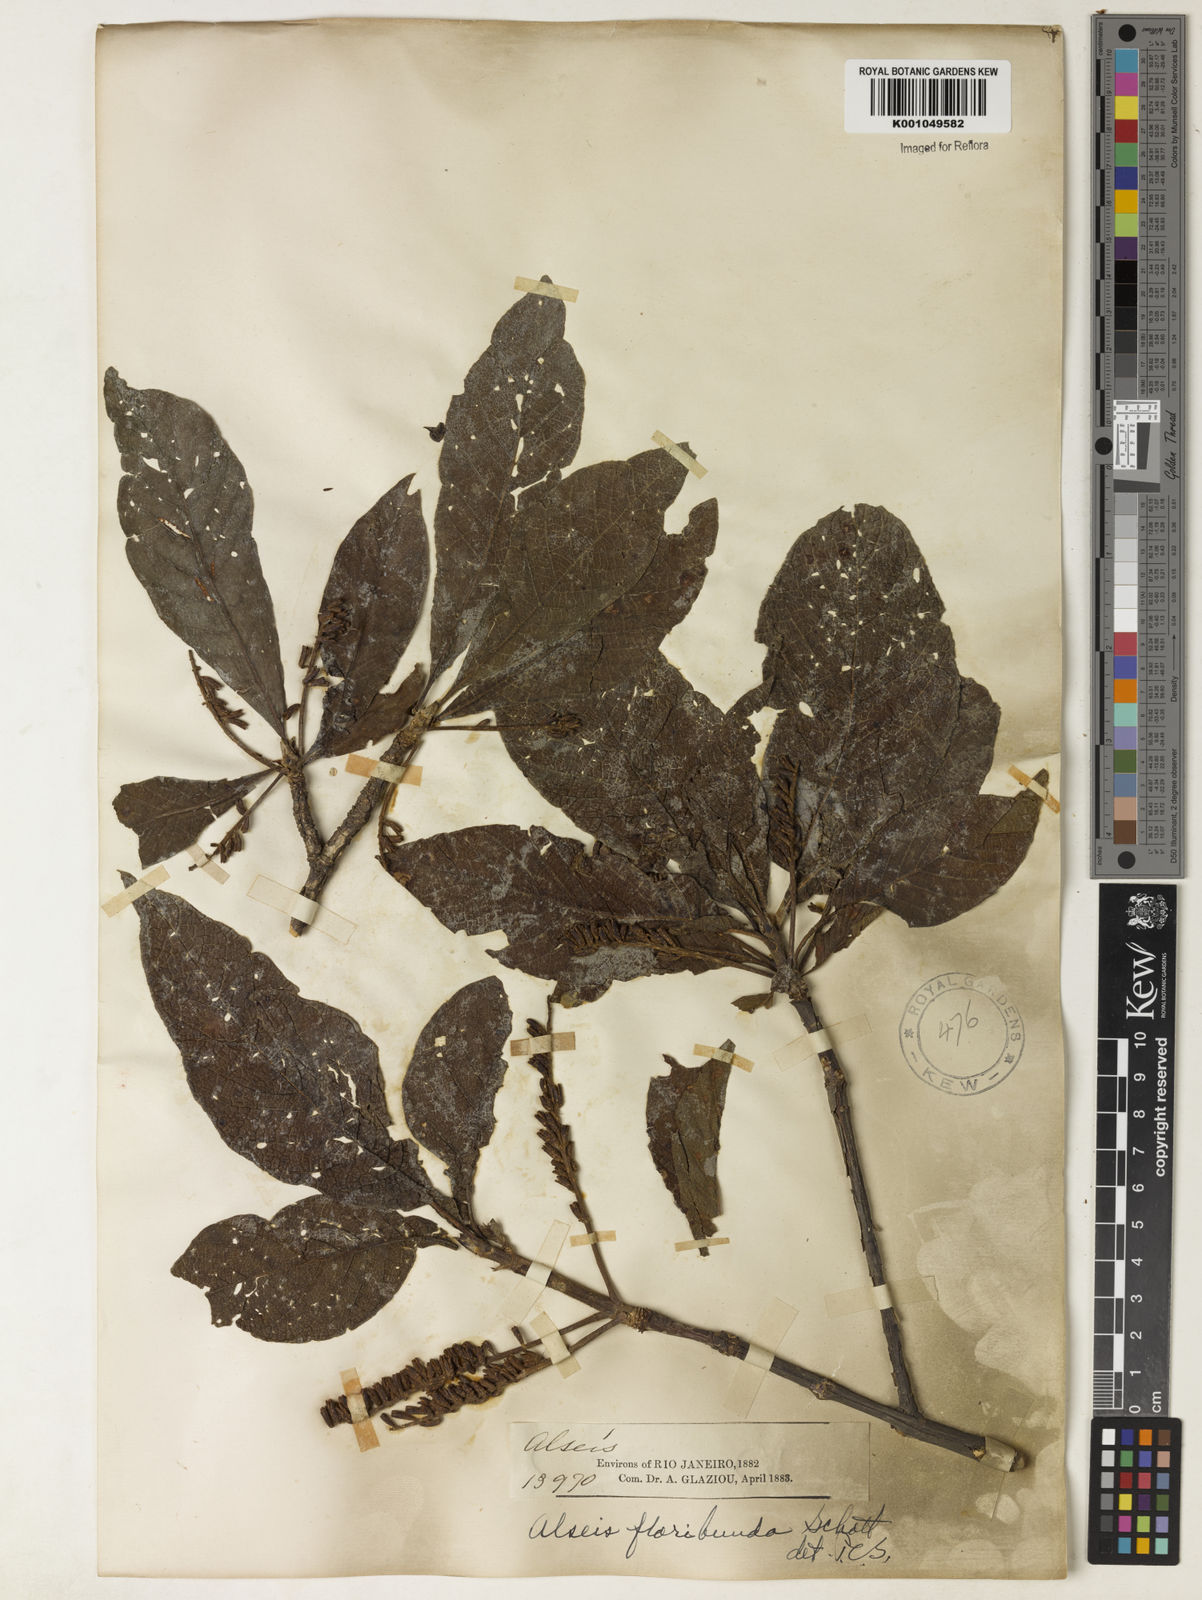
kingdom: Plantae
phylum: Tracheophyta
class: Magnoliopsida
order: Gentianales
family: Rubiaceae
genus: Alseis
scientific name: Alseis floribunda
